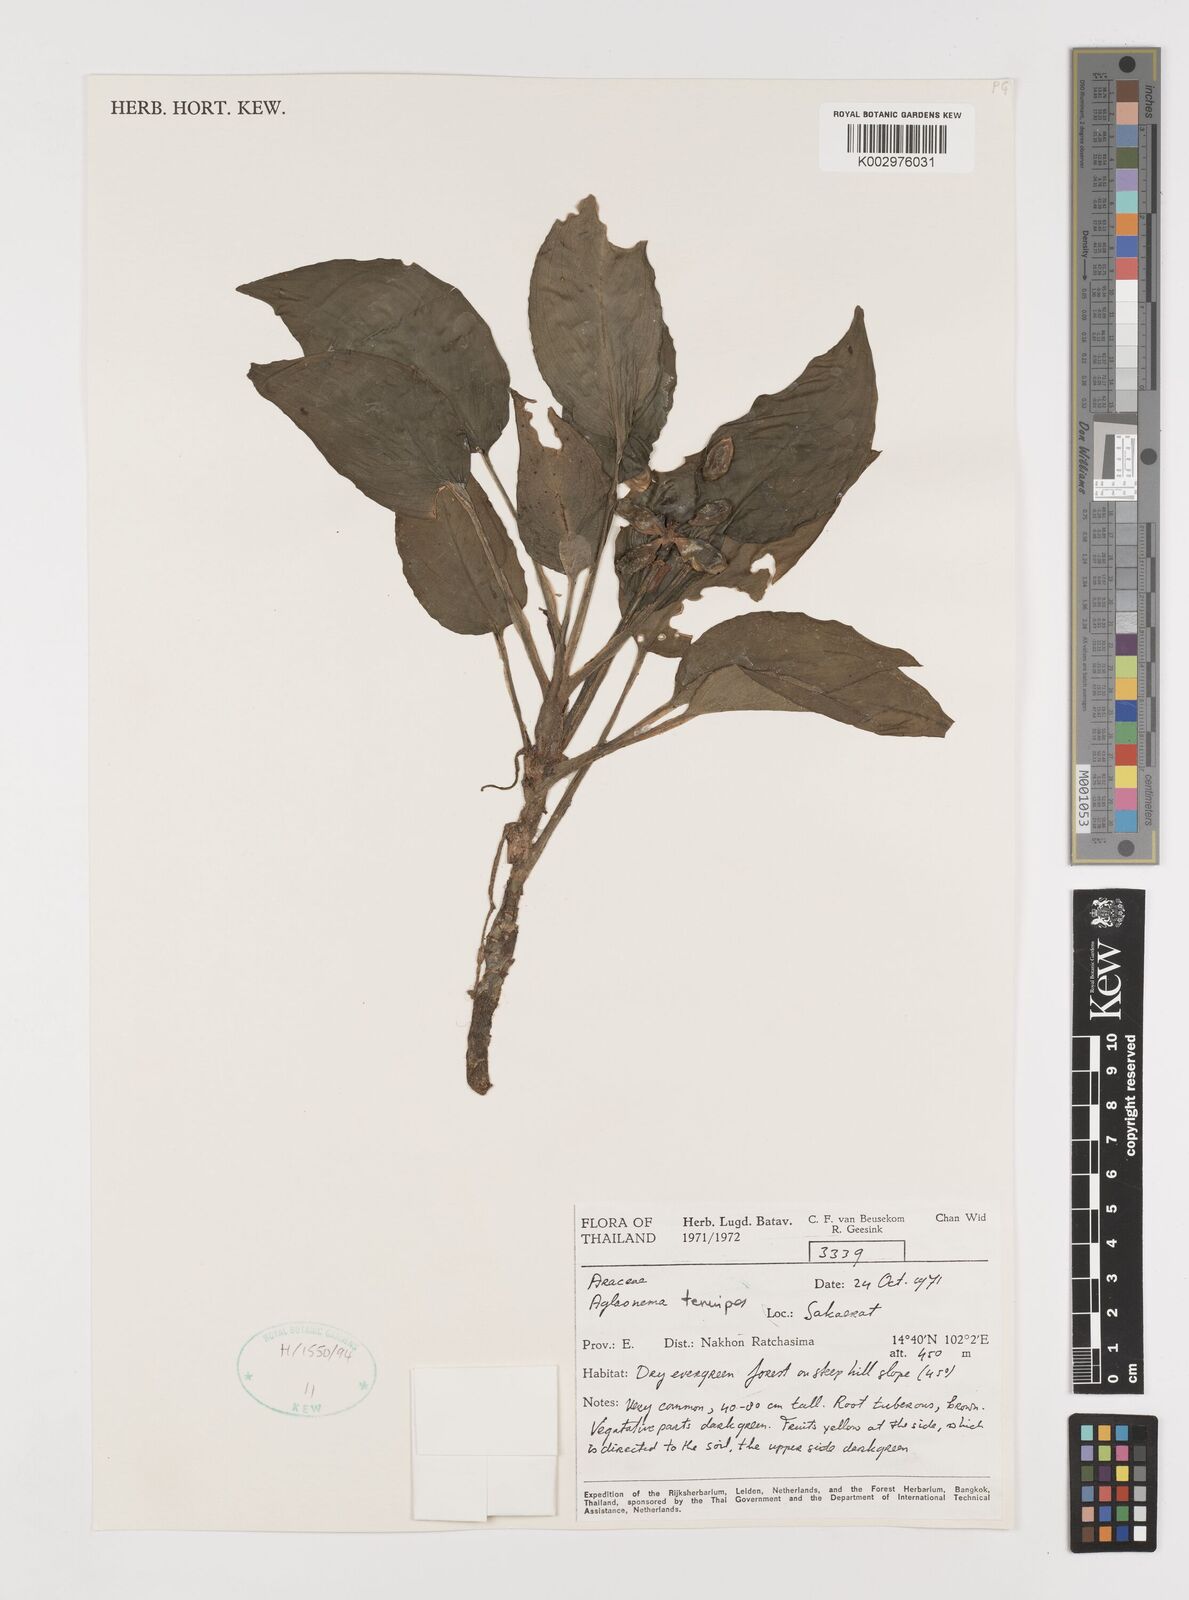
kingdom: Plantae
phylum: Tracheophyta
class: Liliopsida
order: Alismatales
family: Araceae
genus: Aglaonema
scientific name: Aglaonema simplex
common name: Malayan-sword
